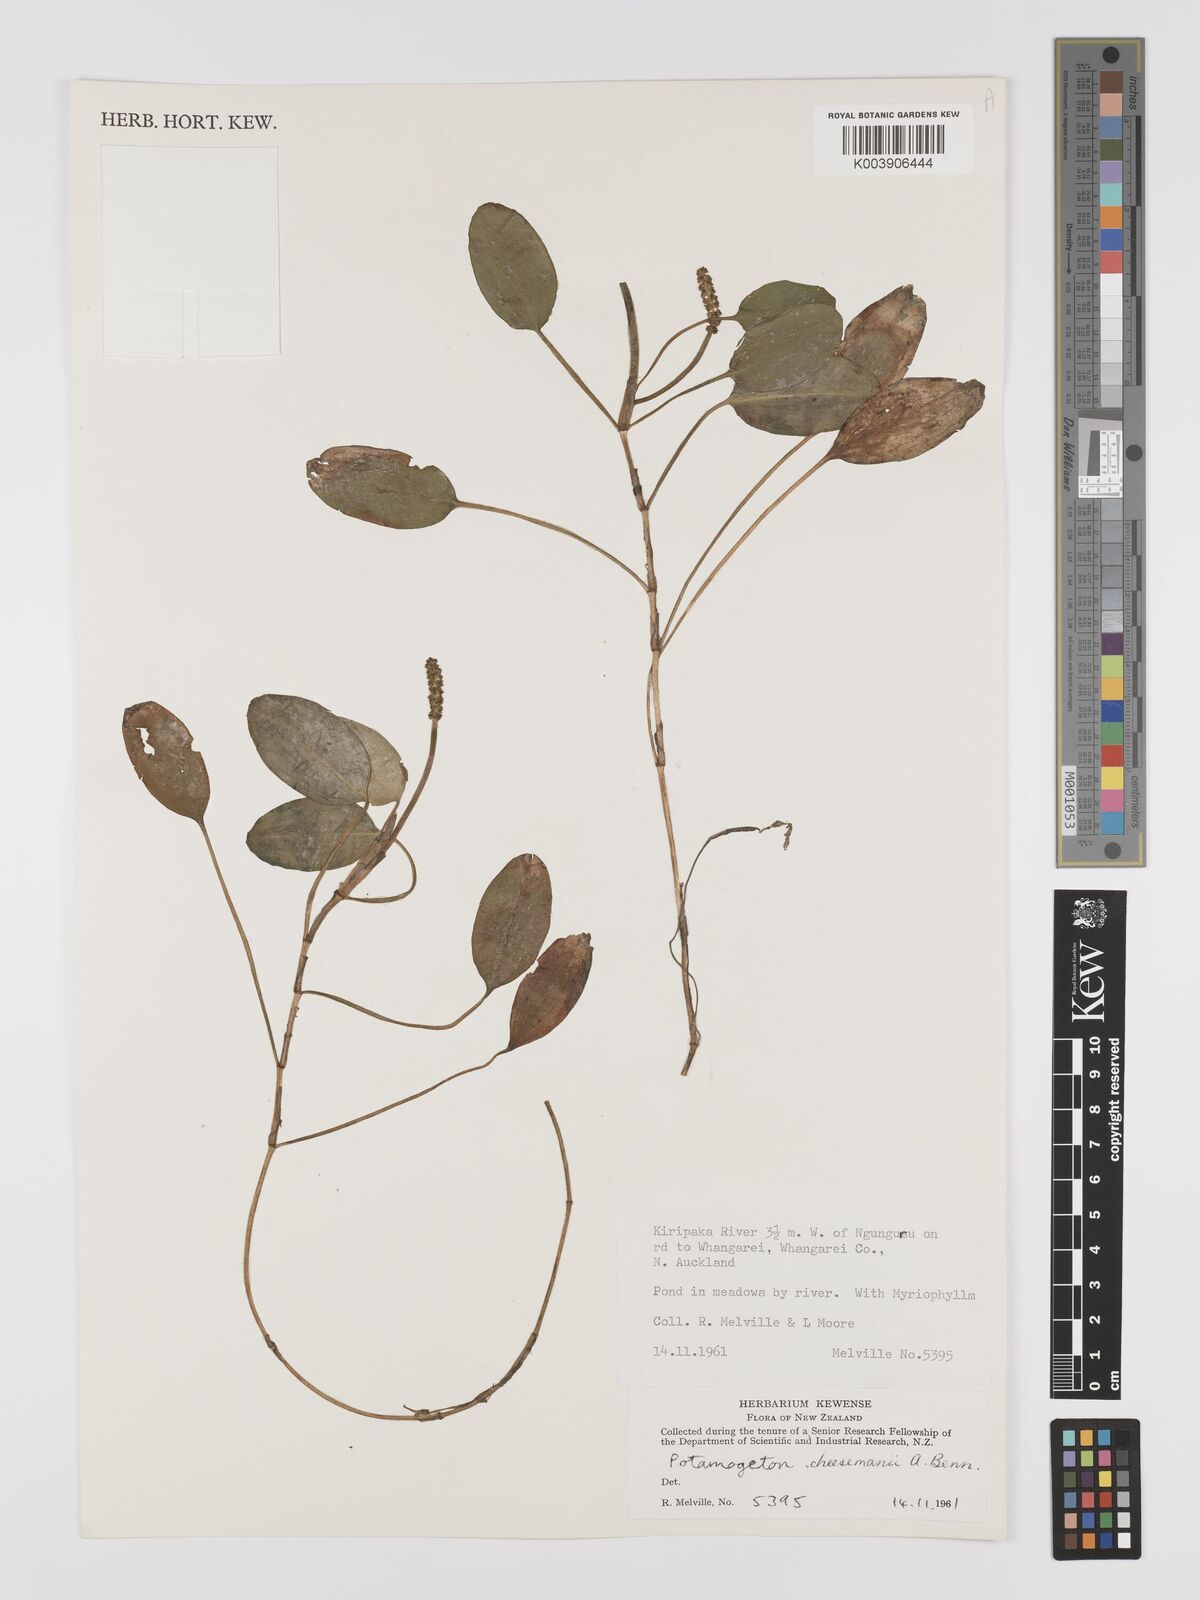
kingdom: Plantae
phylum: Tracheophyta
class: Liliopsida
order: Alismatales
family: Potamogetonaceae
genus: Potamogeton
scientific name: Potamogeton cheesemanii
